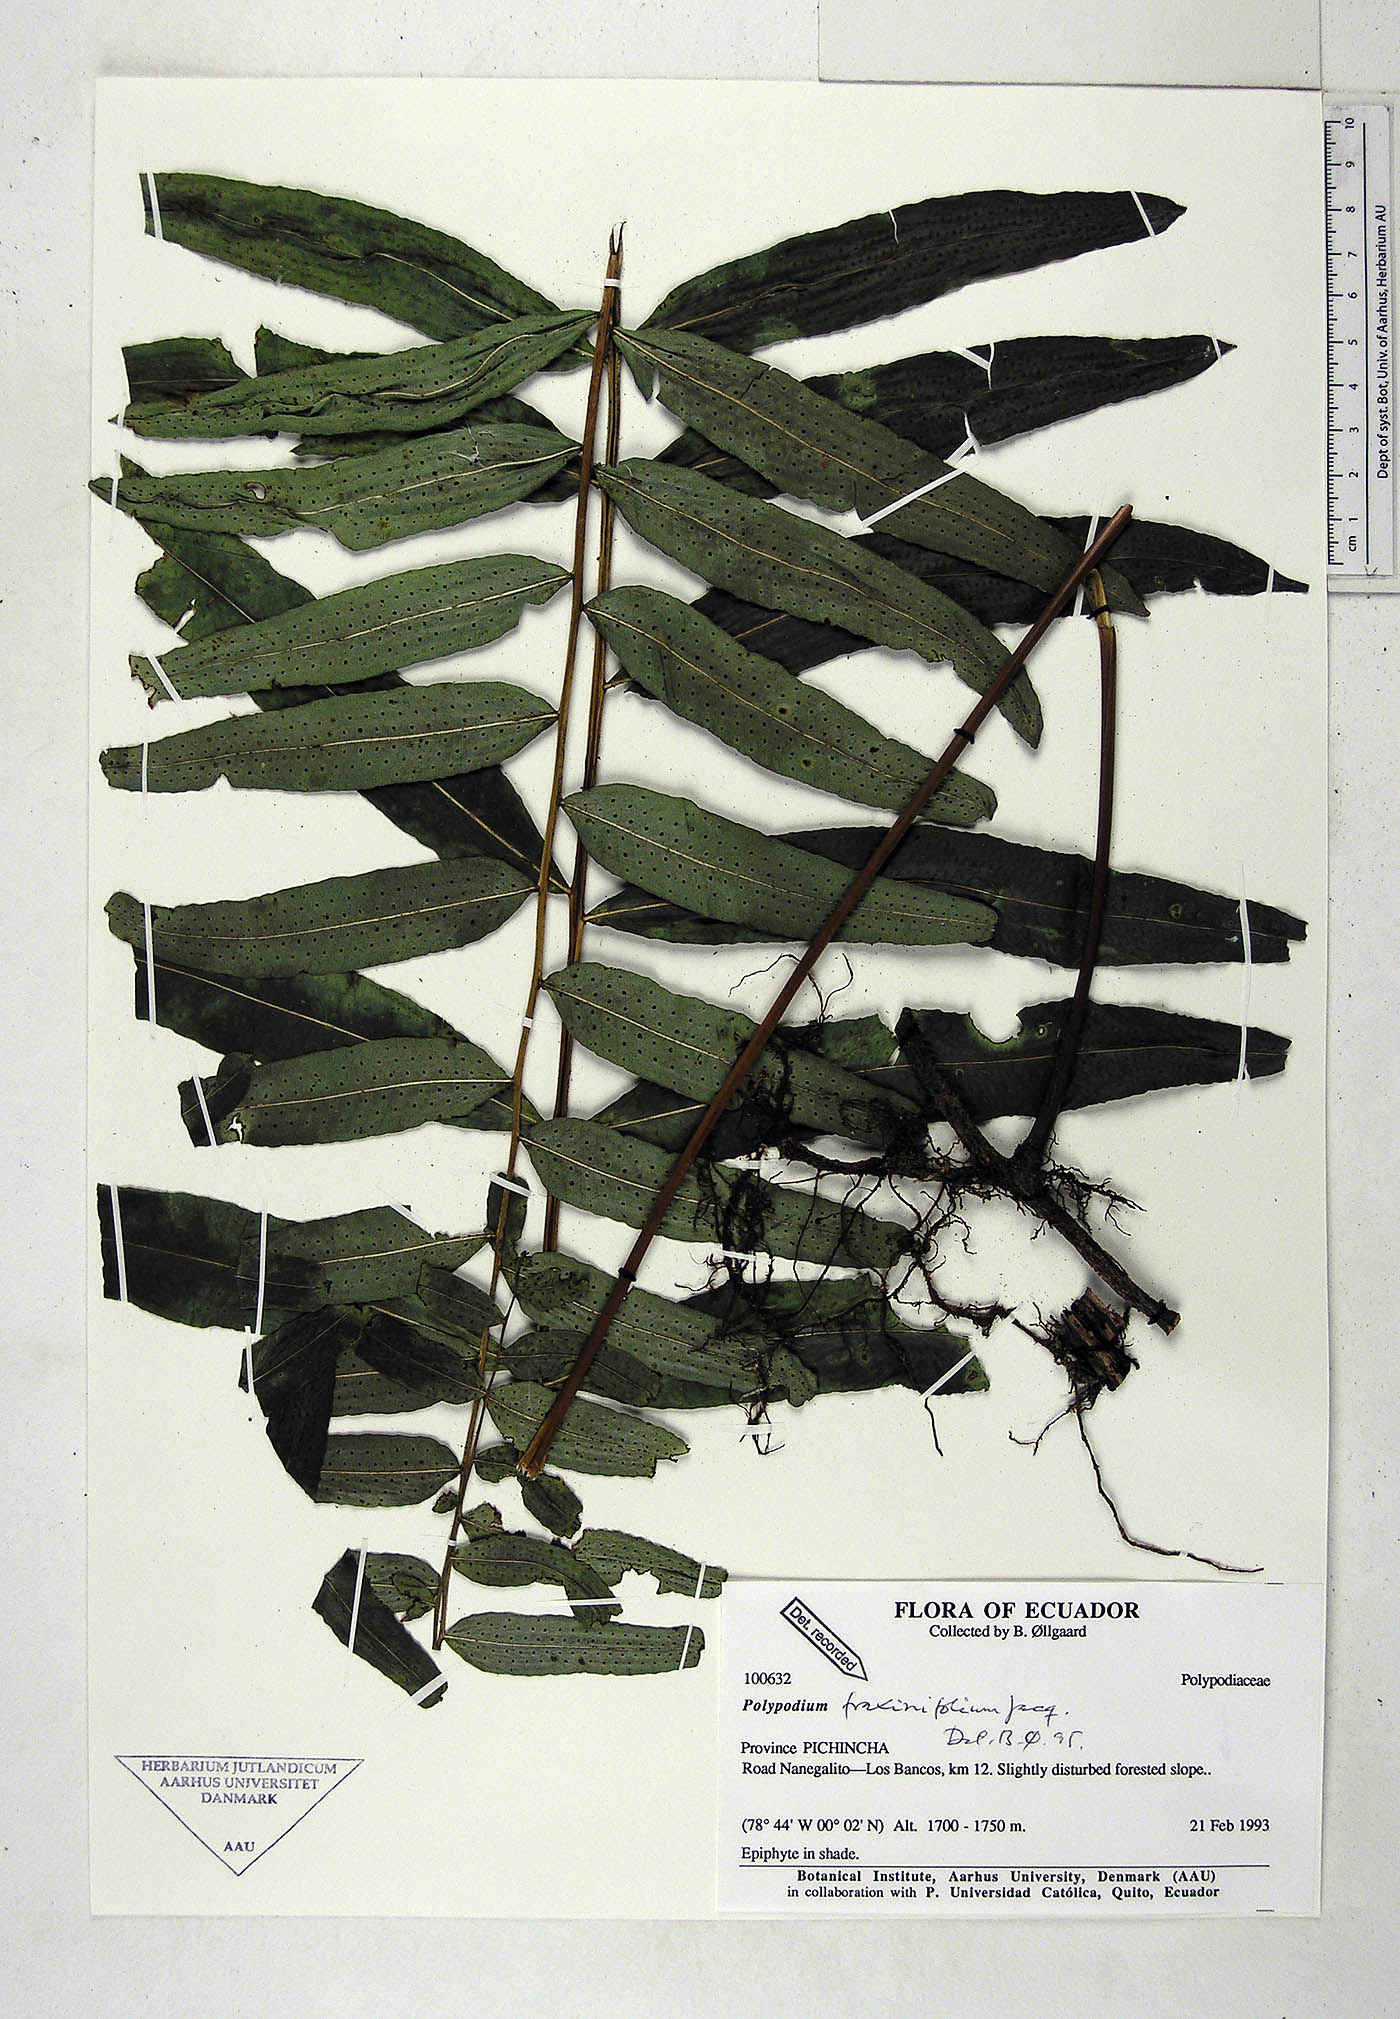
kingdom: Plantae
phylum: Tracheophyta
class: Polypodiopsida
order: Polypodiales
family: Polypodiaceae
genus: Serpocaulon
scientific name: Serpocaulon fraxinifolium
